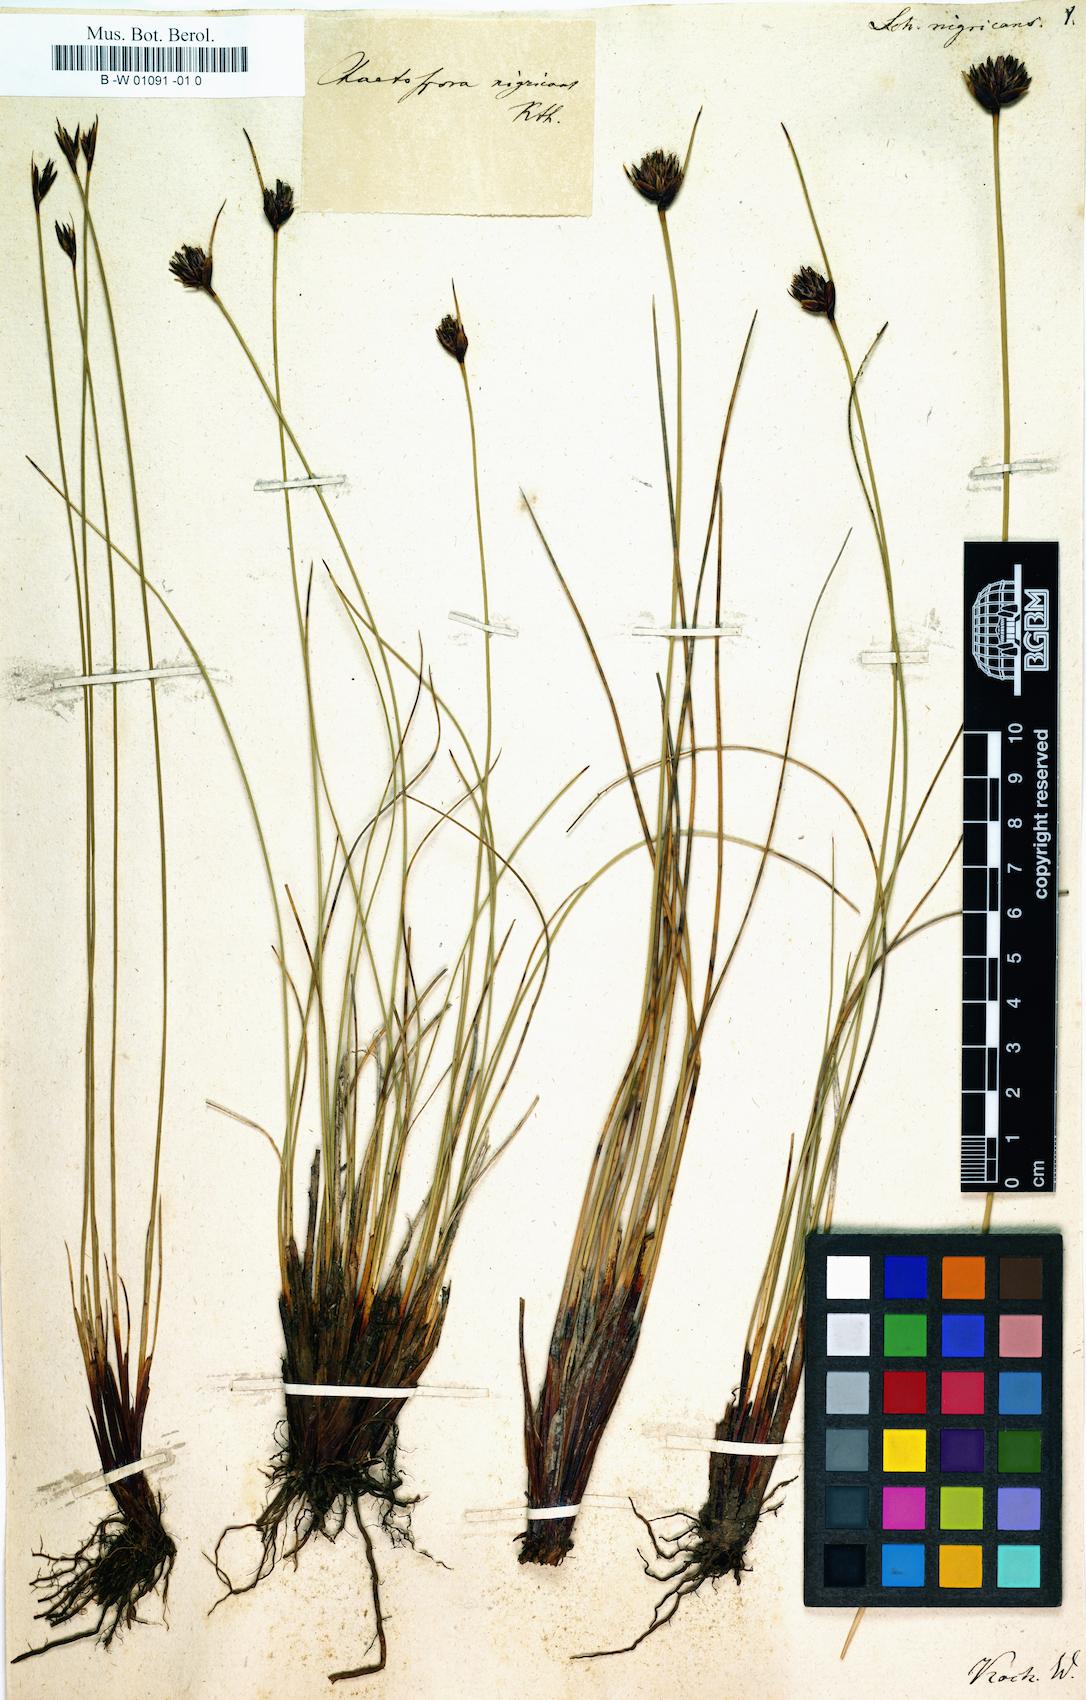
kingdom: Plantae
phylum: Tracheophyta
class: Liliopsida
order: Poales
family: Cyperaceae
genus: Schoenus
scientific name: Schoenus nigricans
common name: Black bog-rush
